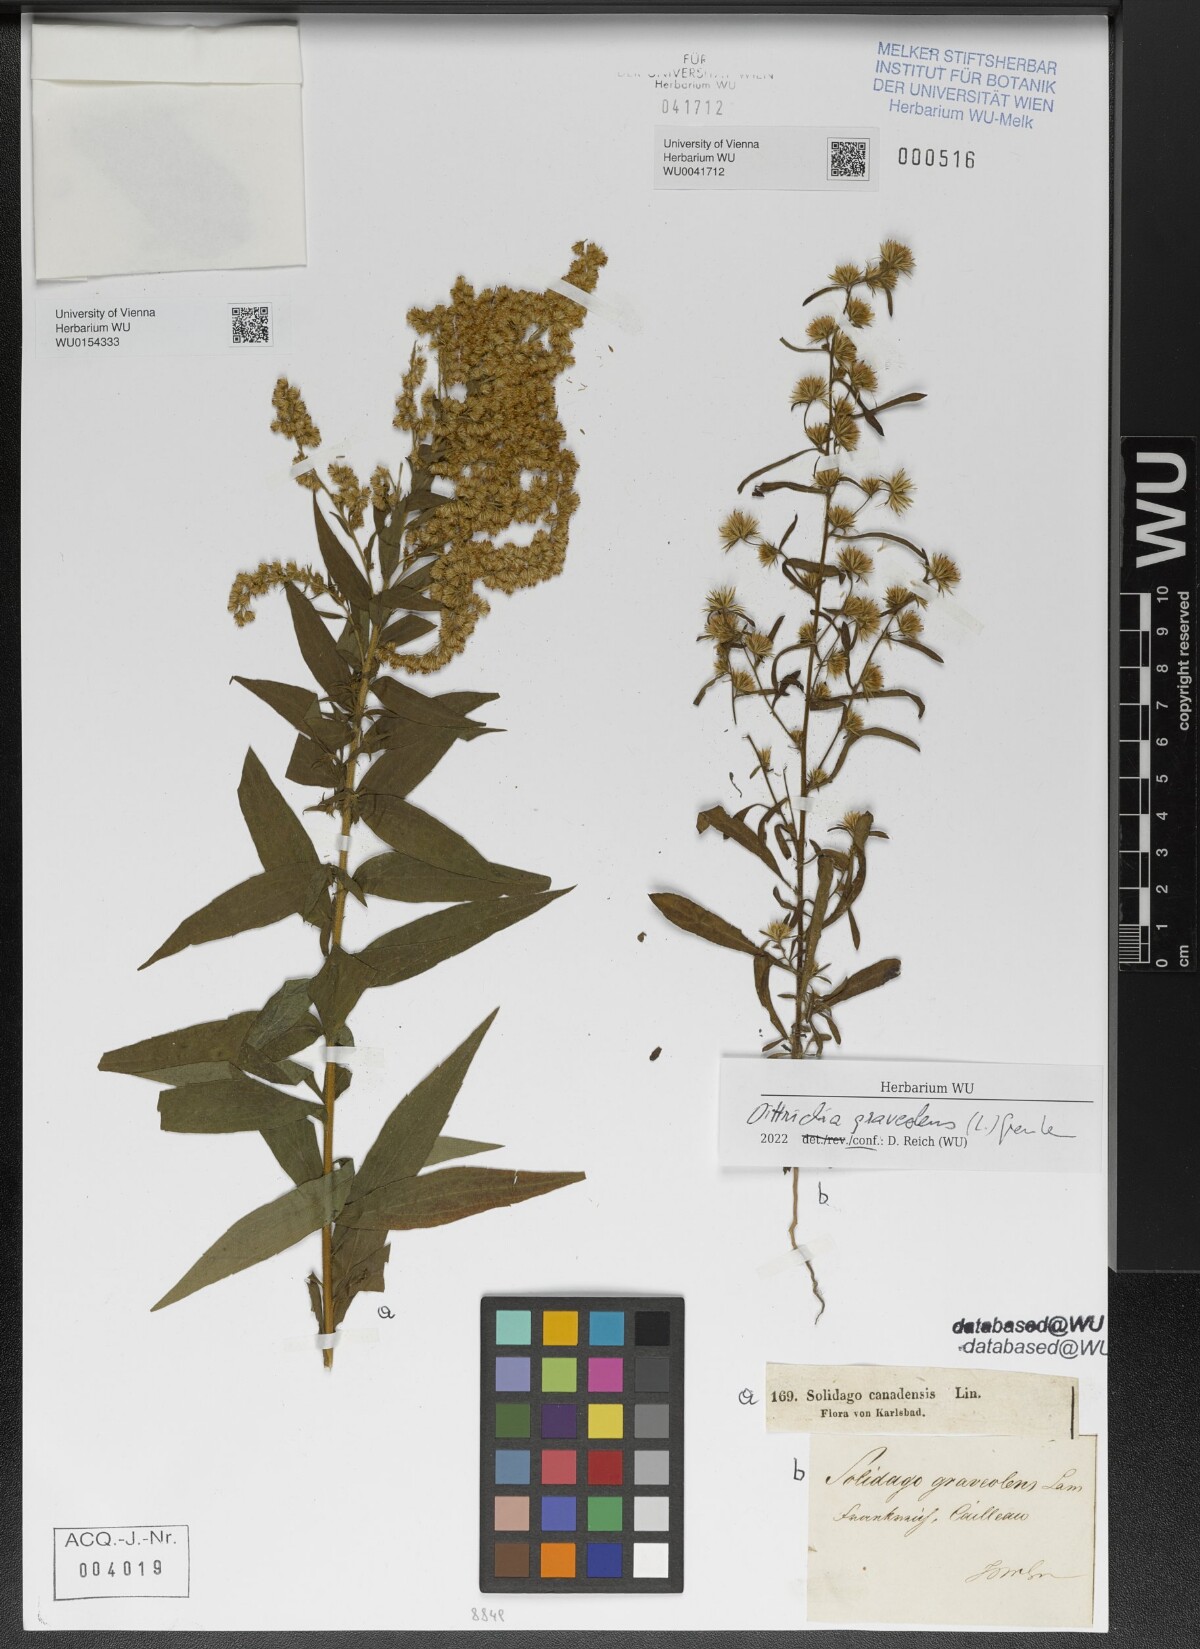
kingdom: Plantae
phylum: Tracheophyta
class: Magnoliopsida
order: Asterales
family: Asteraceae
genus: Solidago
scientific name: Solidago canadensis
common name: Canada goldenrod
